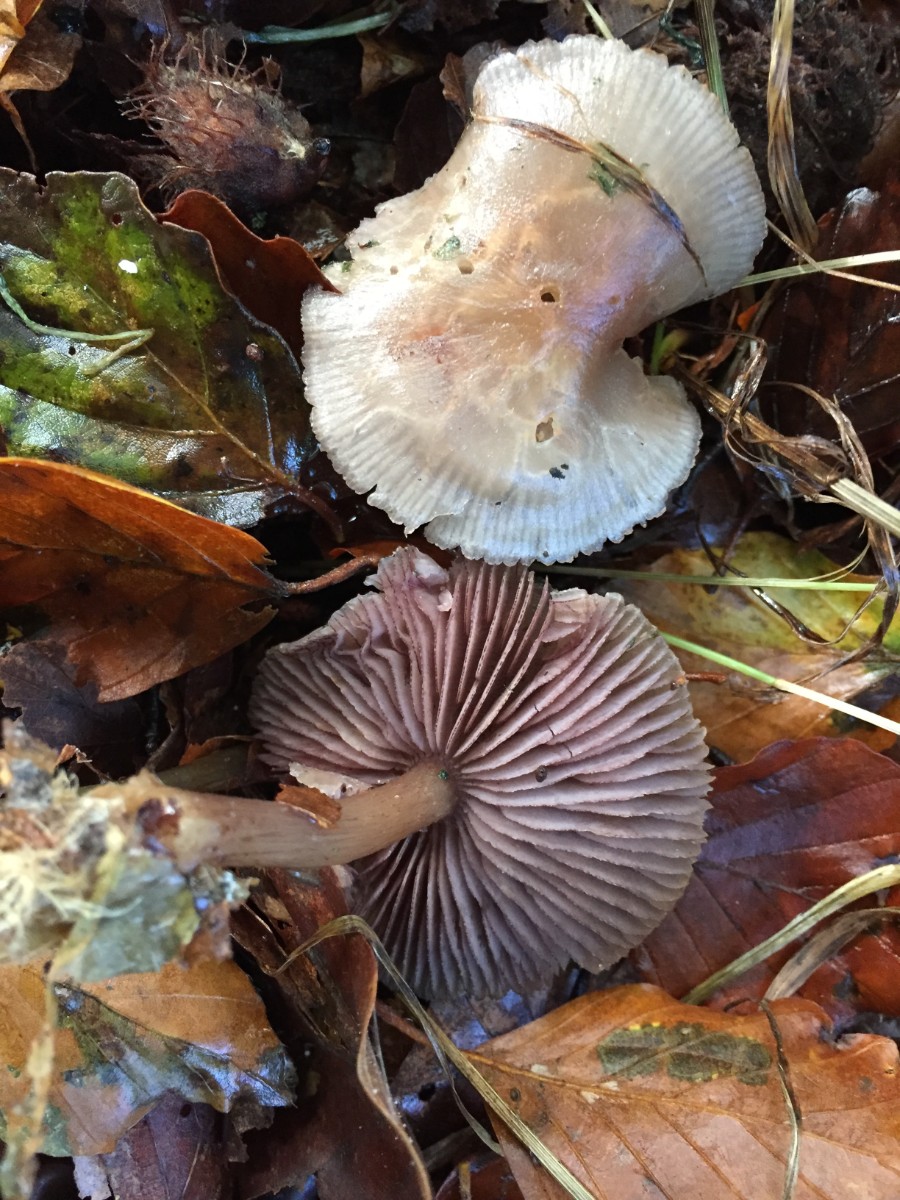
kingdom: Fungi
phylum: Basidiomycota
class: Agaricomycetes
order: Agaricales
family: Mycenaceae
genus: Mycena
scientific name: Mycena pelianthina
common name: mørkbladet huesvamp
